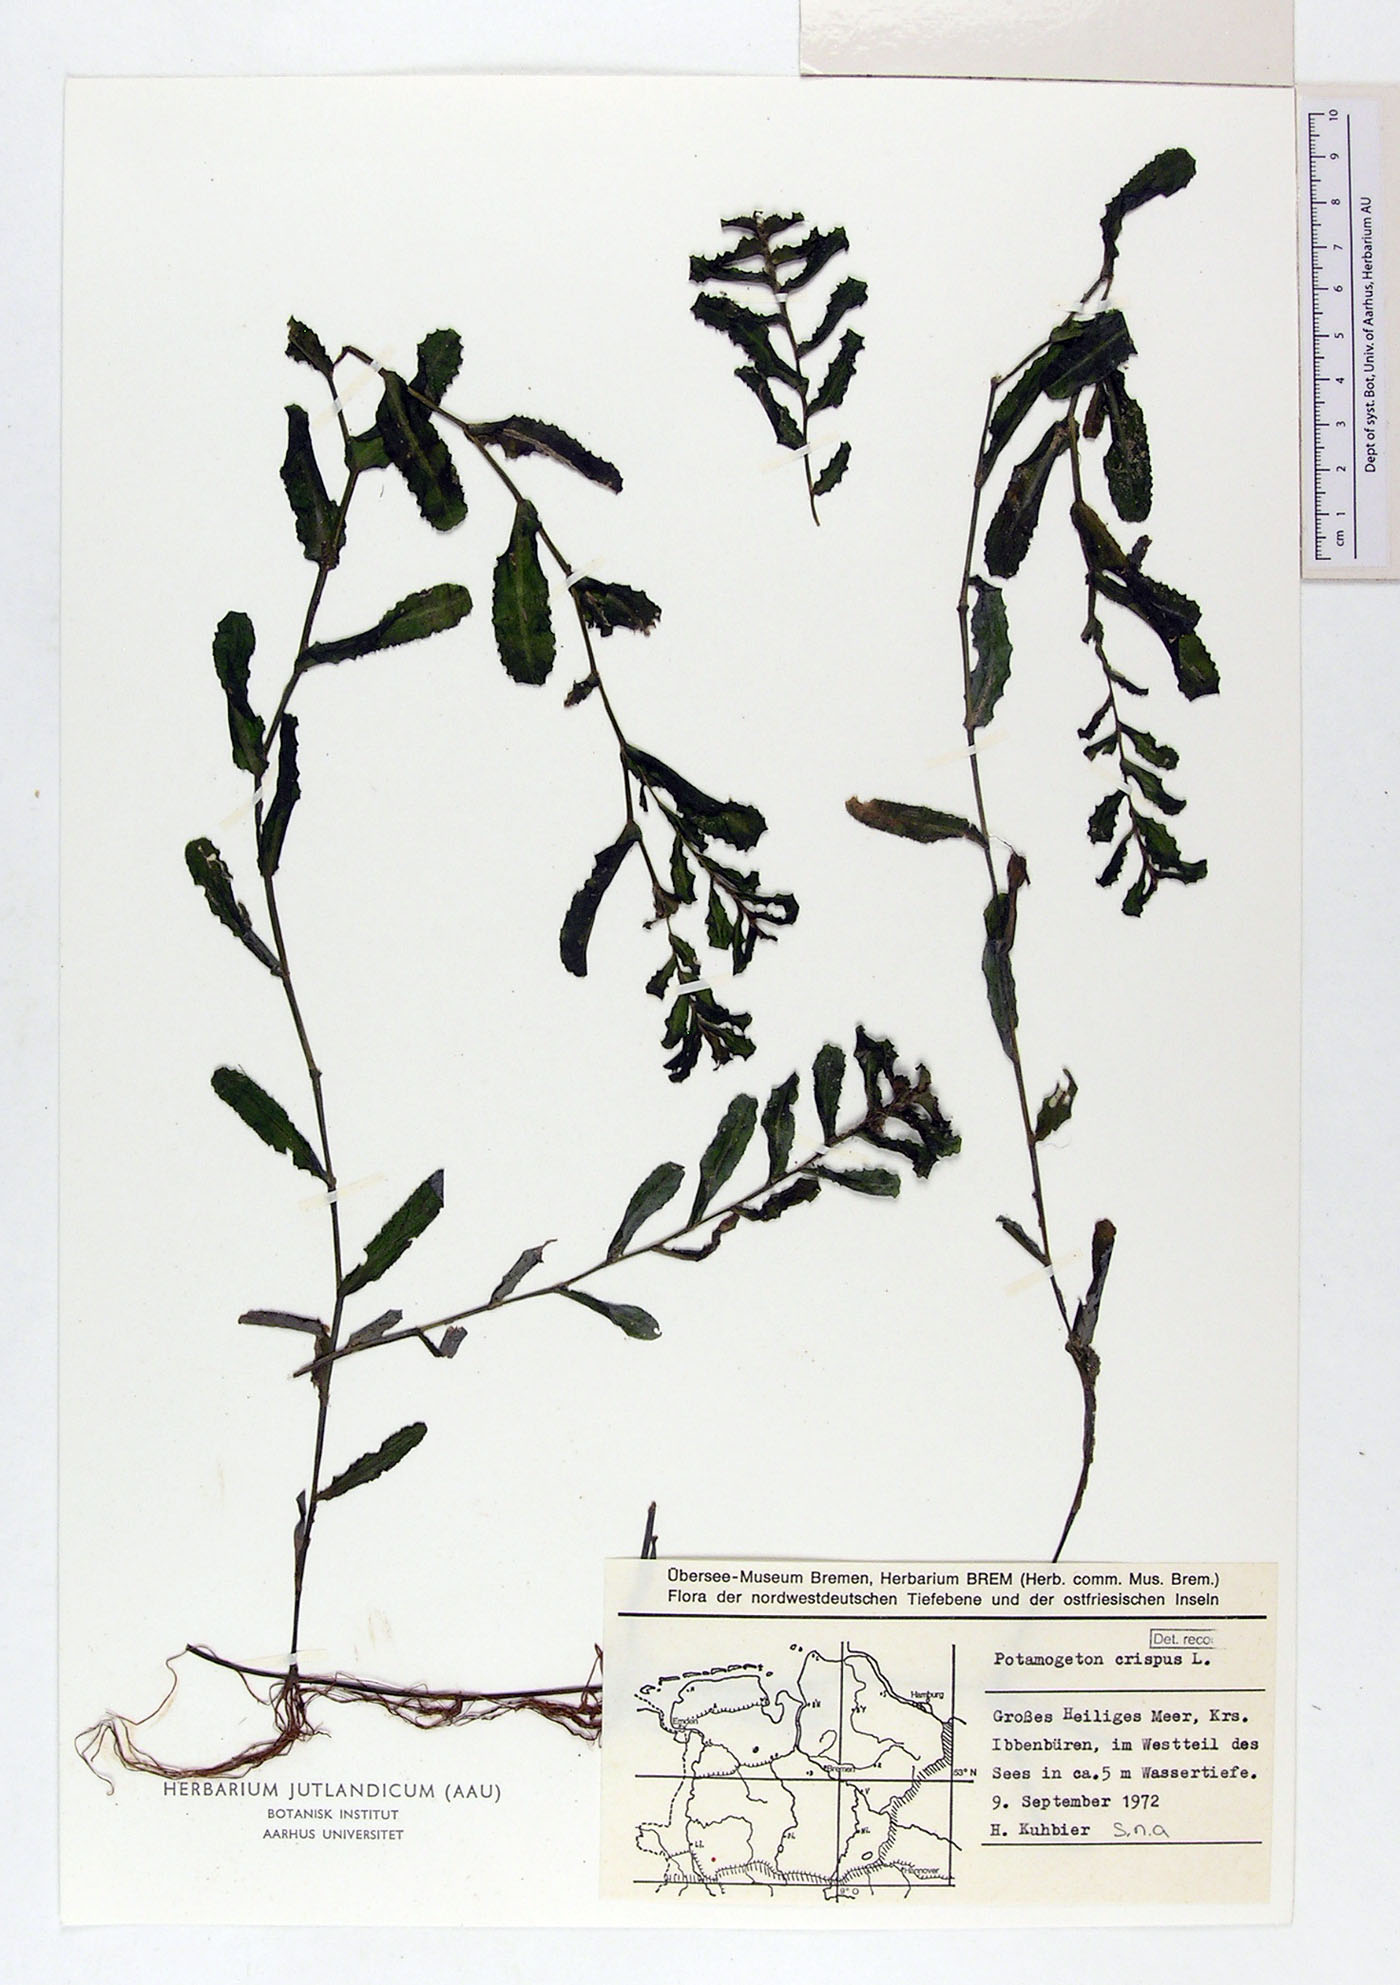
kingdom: Plantae
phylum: Tracheophyta
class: Liliopsida
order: Alismatales
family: Potamogetonaceae
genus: Potamogeton
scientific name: Potamogeton crispus
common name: Curled pondweed
